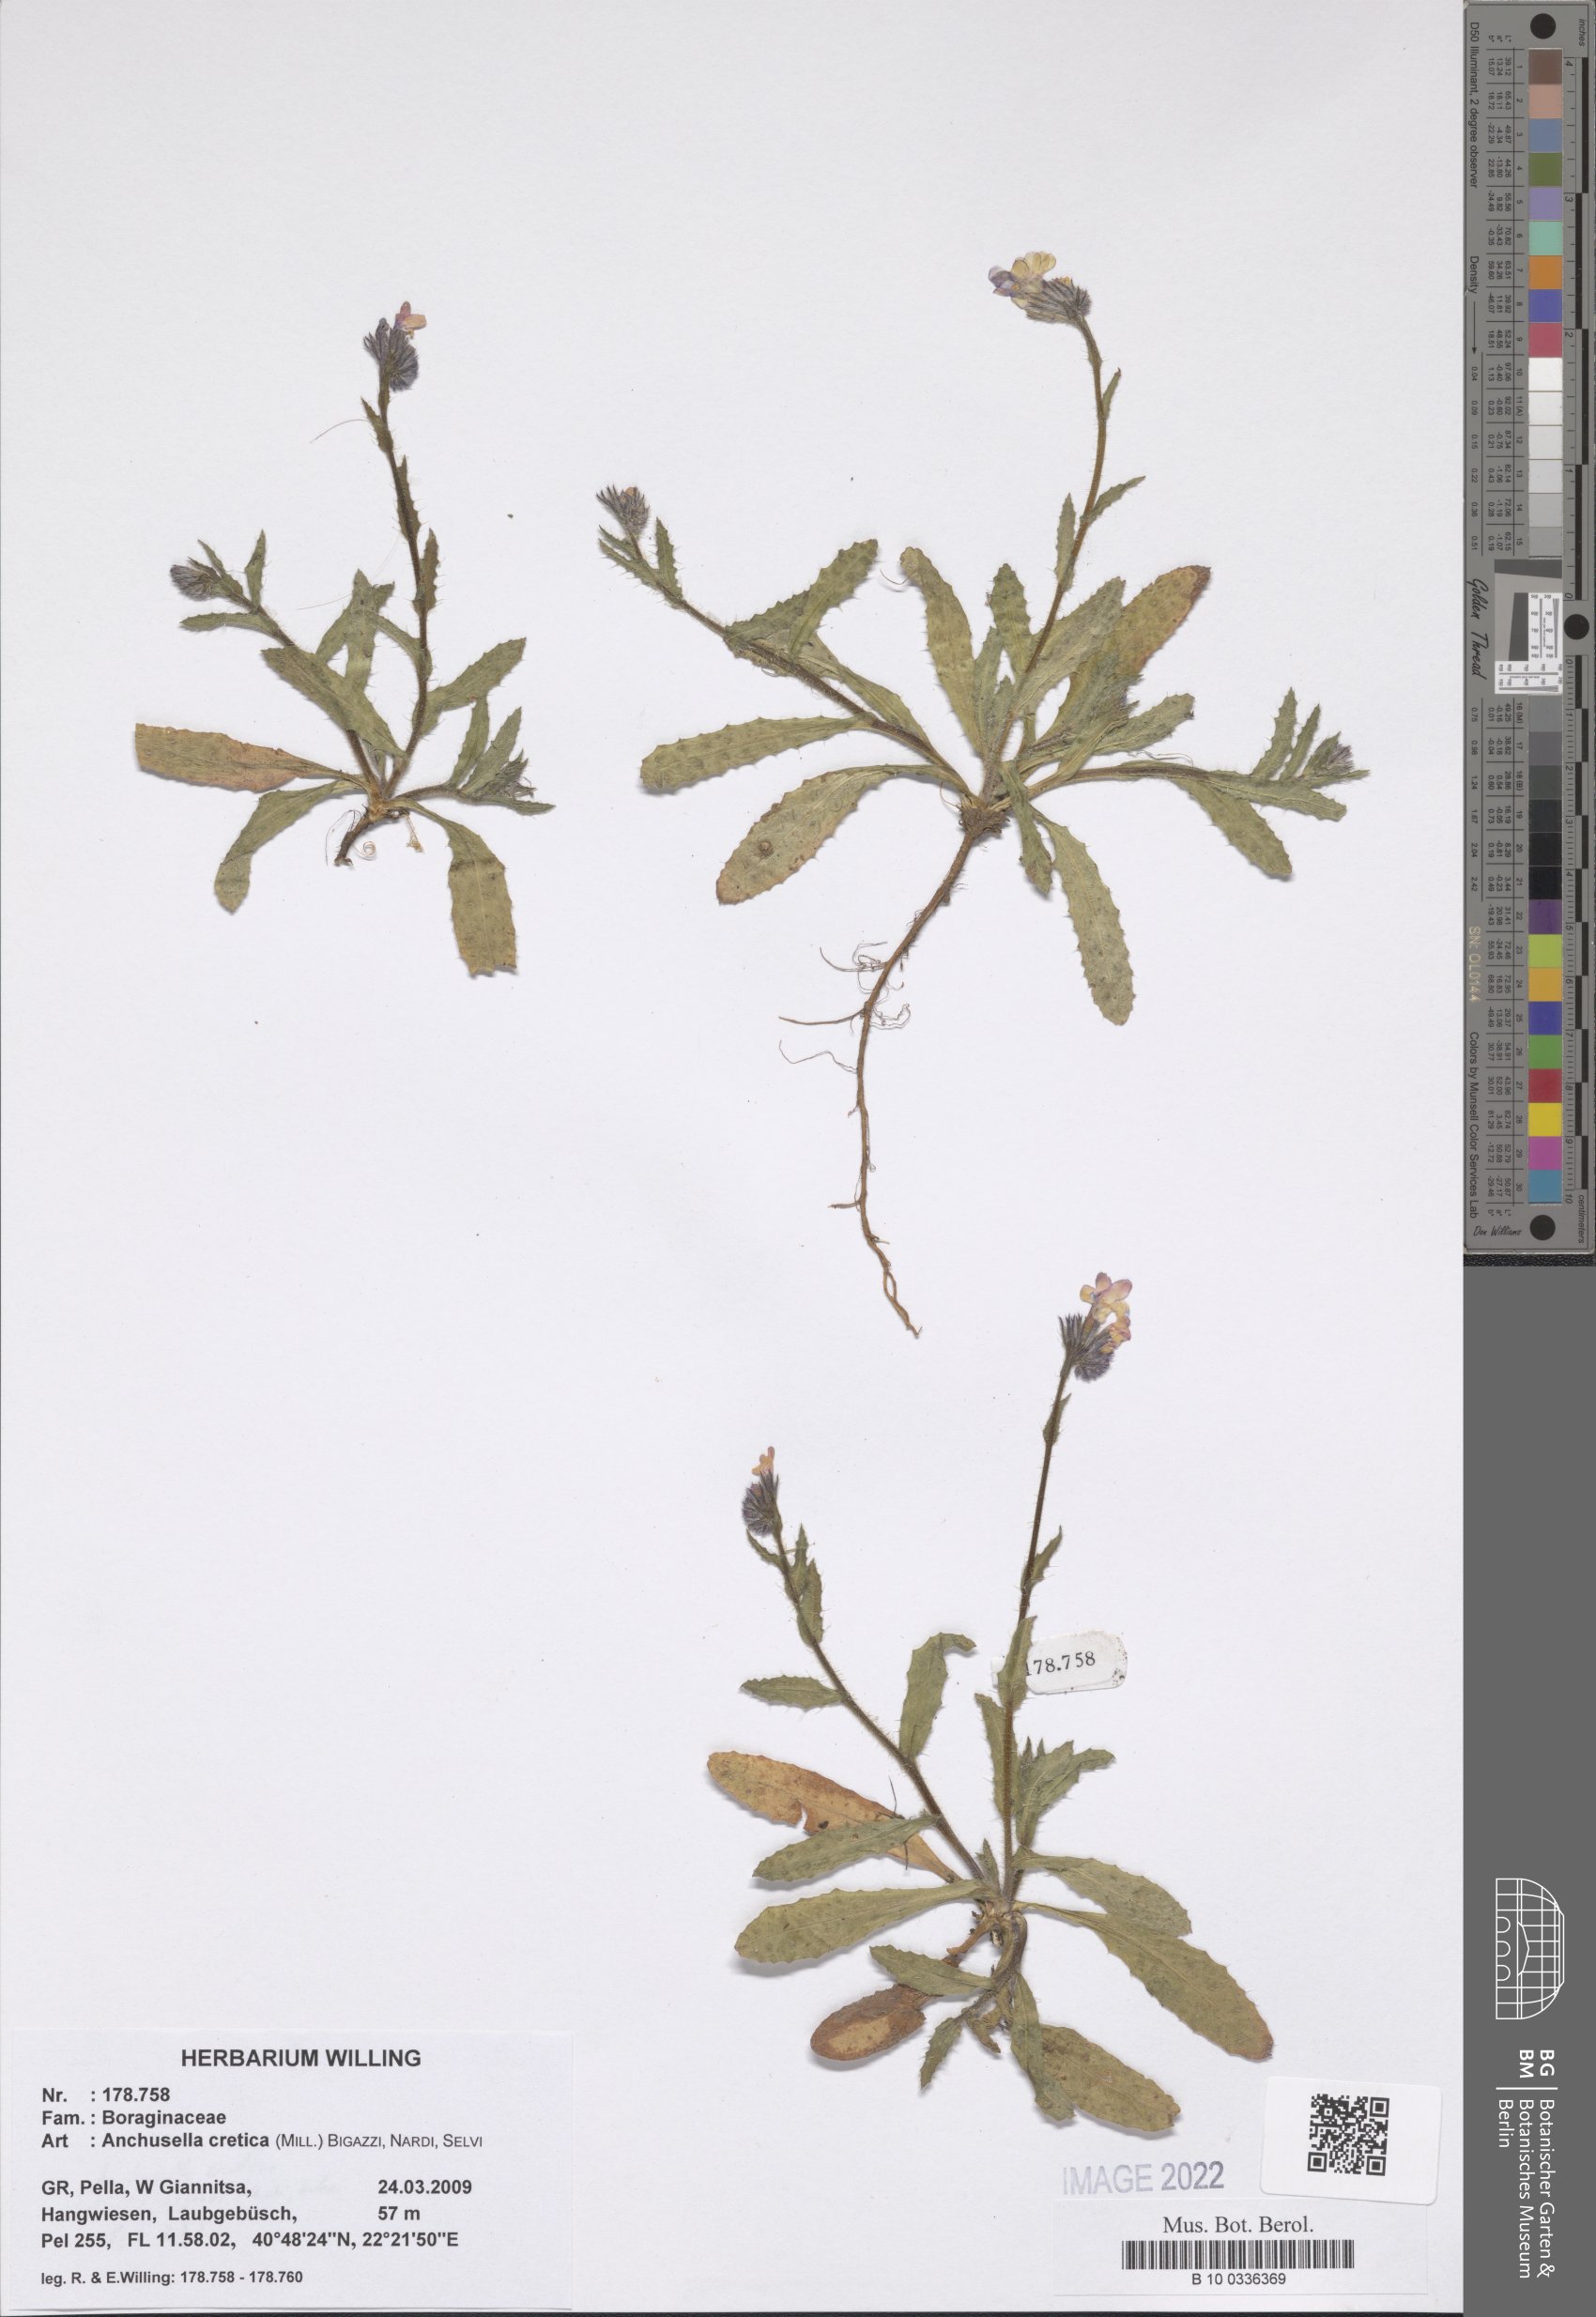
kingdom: Plantae
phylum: Tracheophyta
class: Magnoliopsida
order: Boraginales
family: Boraginaceae
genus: Anchusella
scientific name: Anchusella cretica
